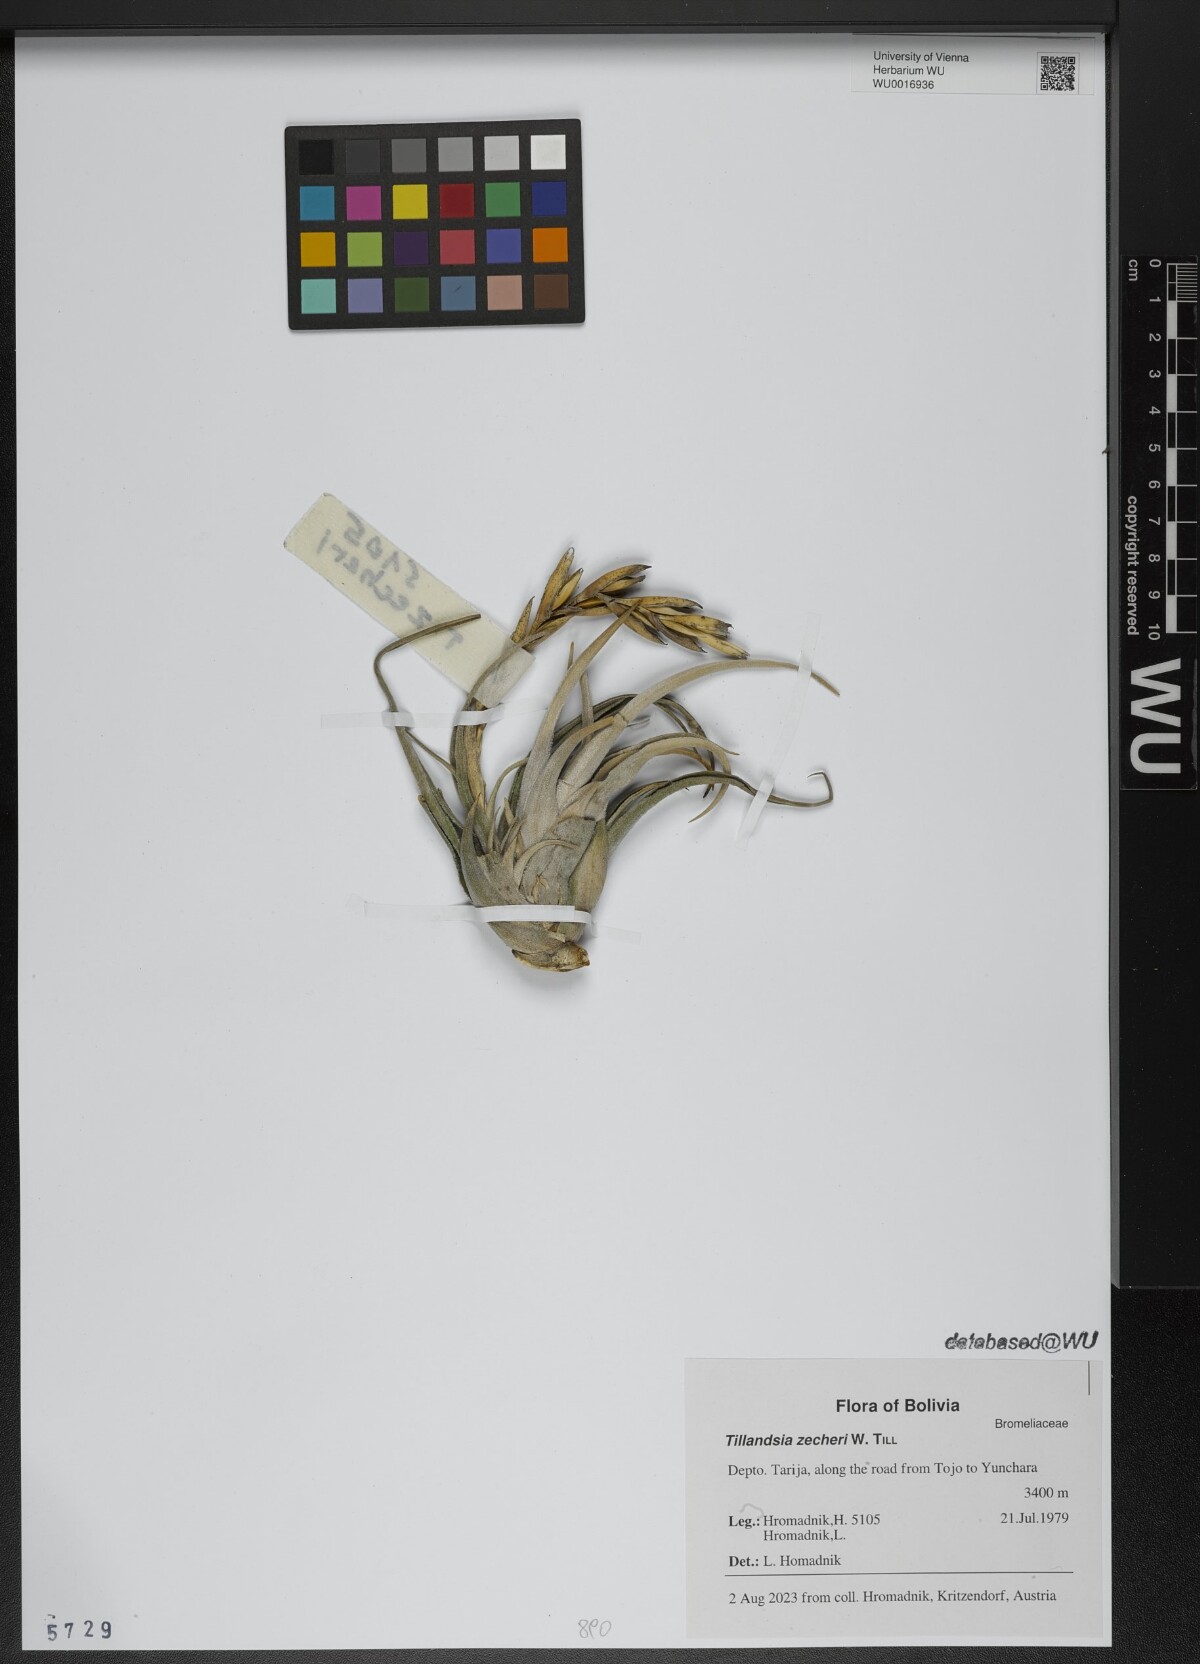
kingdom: Plantae
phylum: Tracheophyta
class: Liliopsida
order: Poales
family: Bromeliaceae
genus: Tillandsia
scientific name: Tillandsia zecheri
